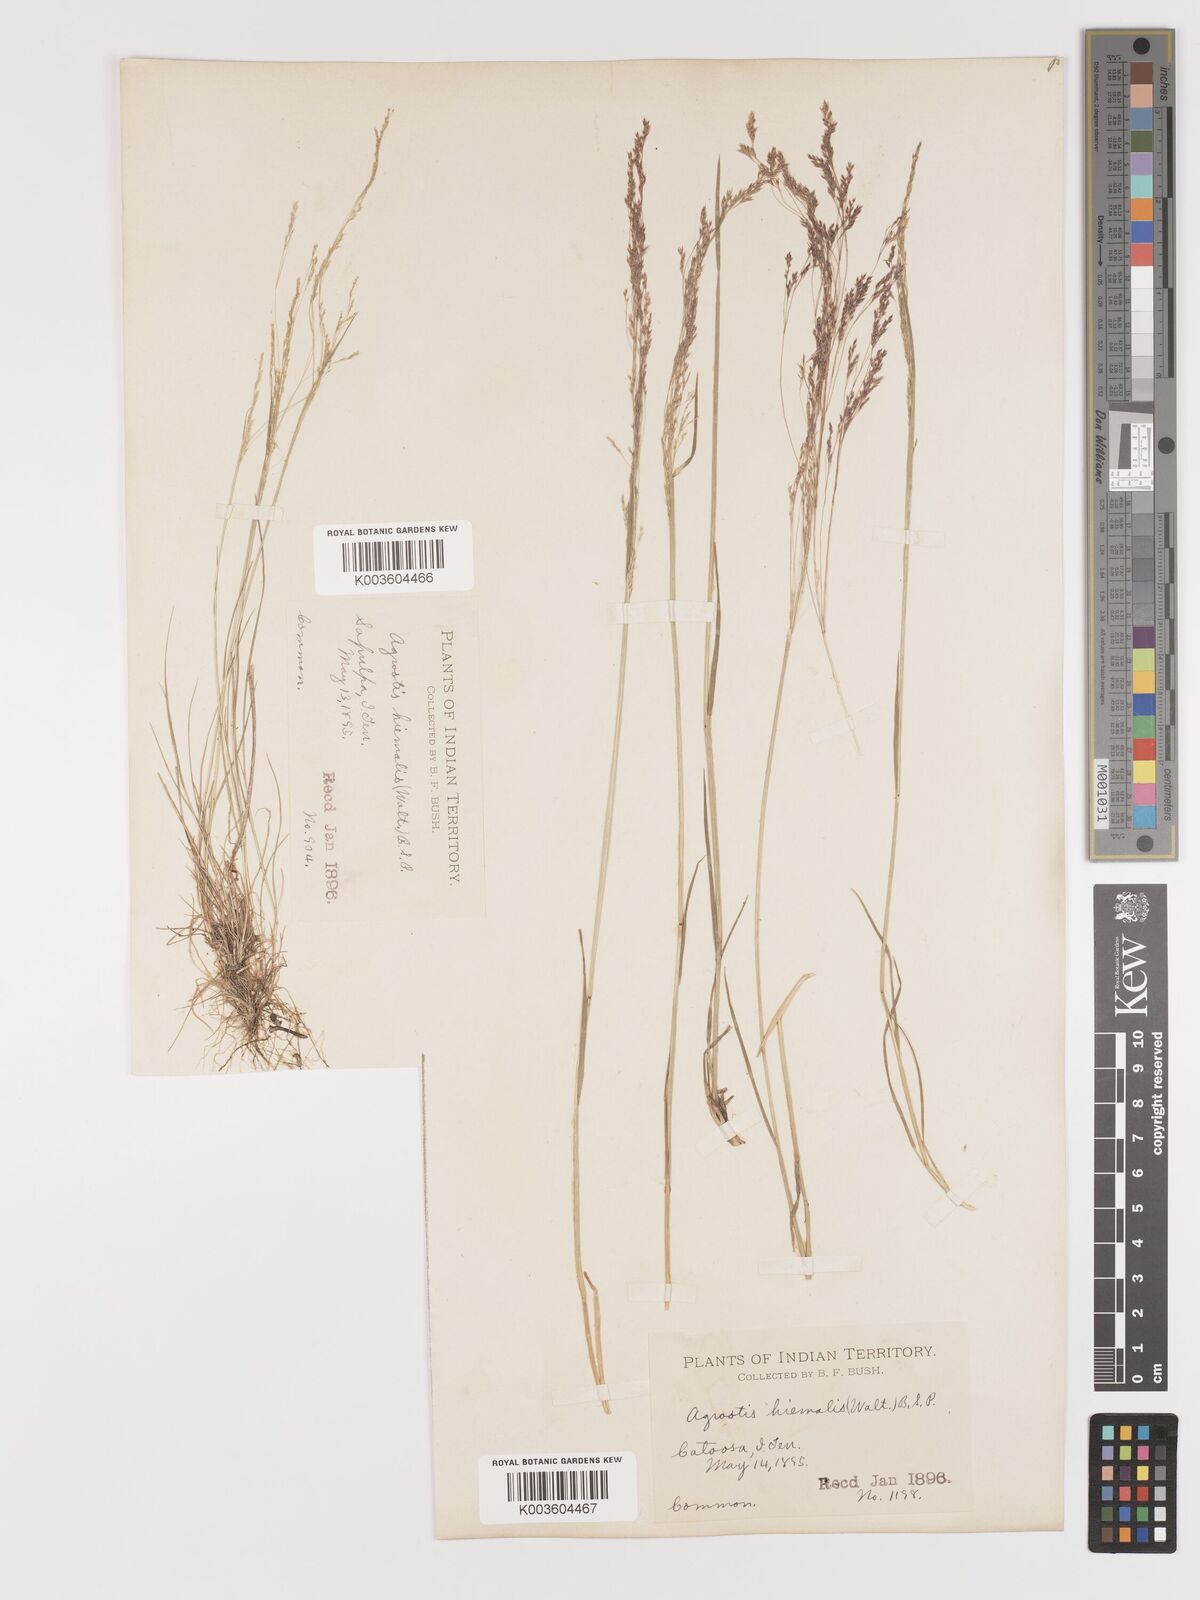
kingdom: Plantae
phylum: Tracheophyta
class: Liliopsida
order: Poales
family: Poaceae
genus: Agrostis
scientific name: Agrostis hyemalis
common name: Small bent
